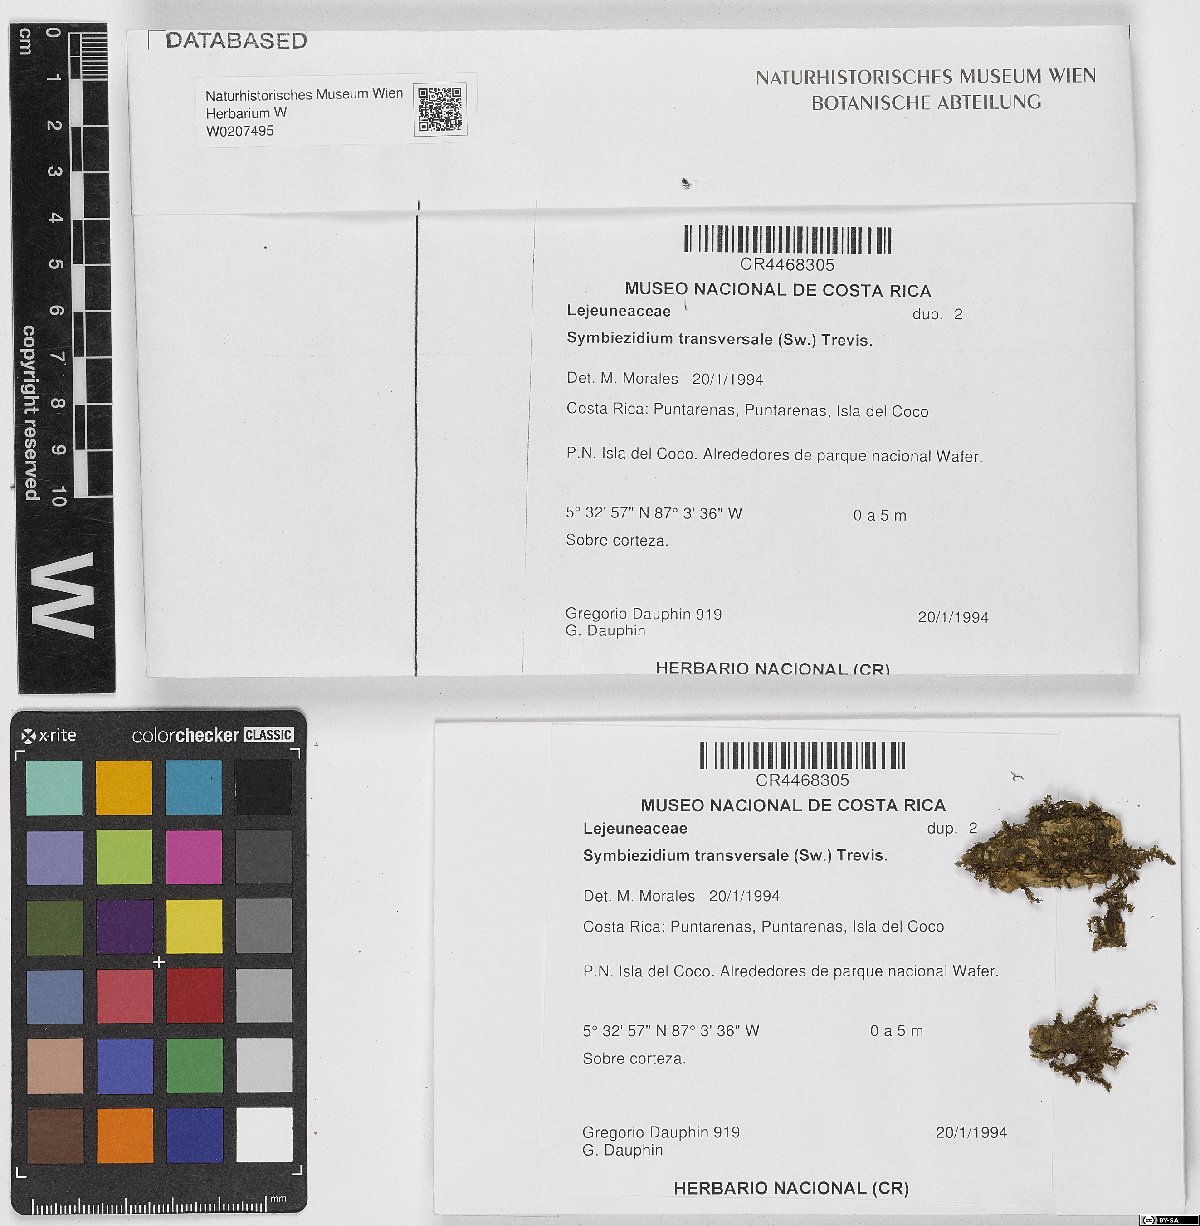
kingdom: Plantae
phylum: Marchantiophyta
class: Jungermanniopsida
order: Porellales
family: Lejeuneaceae
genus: Symbiezidium
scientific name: Symbiezidium transversale
